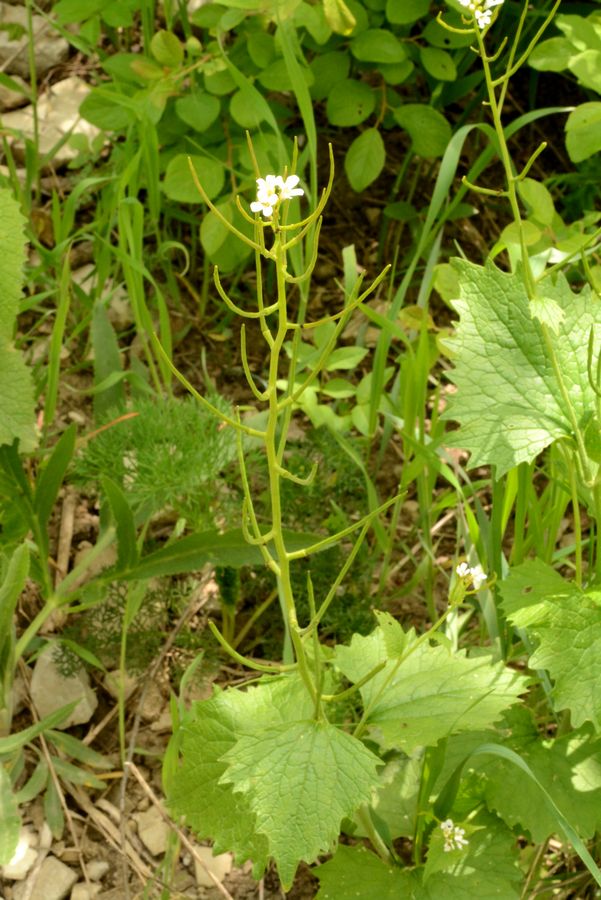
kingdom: Plantae
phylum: Tracheophyta
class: Magnoliopsida
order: Brassicales
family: Brassicaceae
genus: Alliaria
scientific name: Alliaria petiolata
